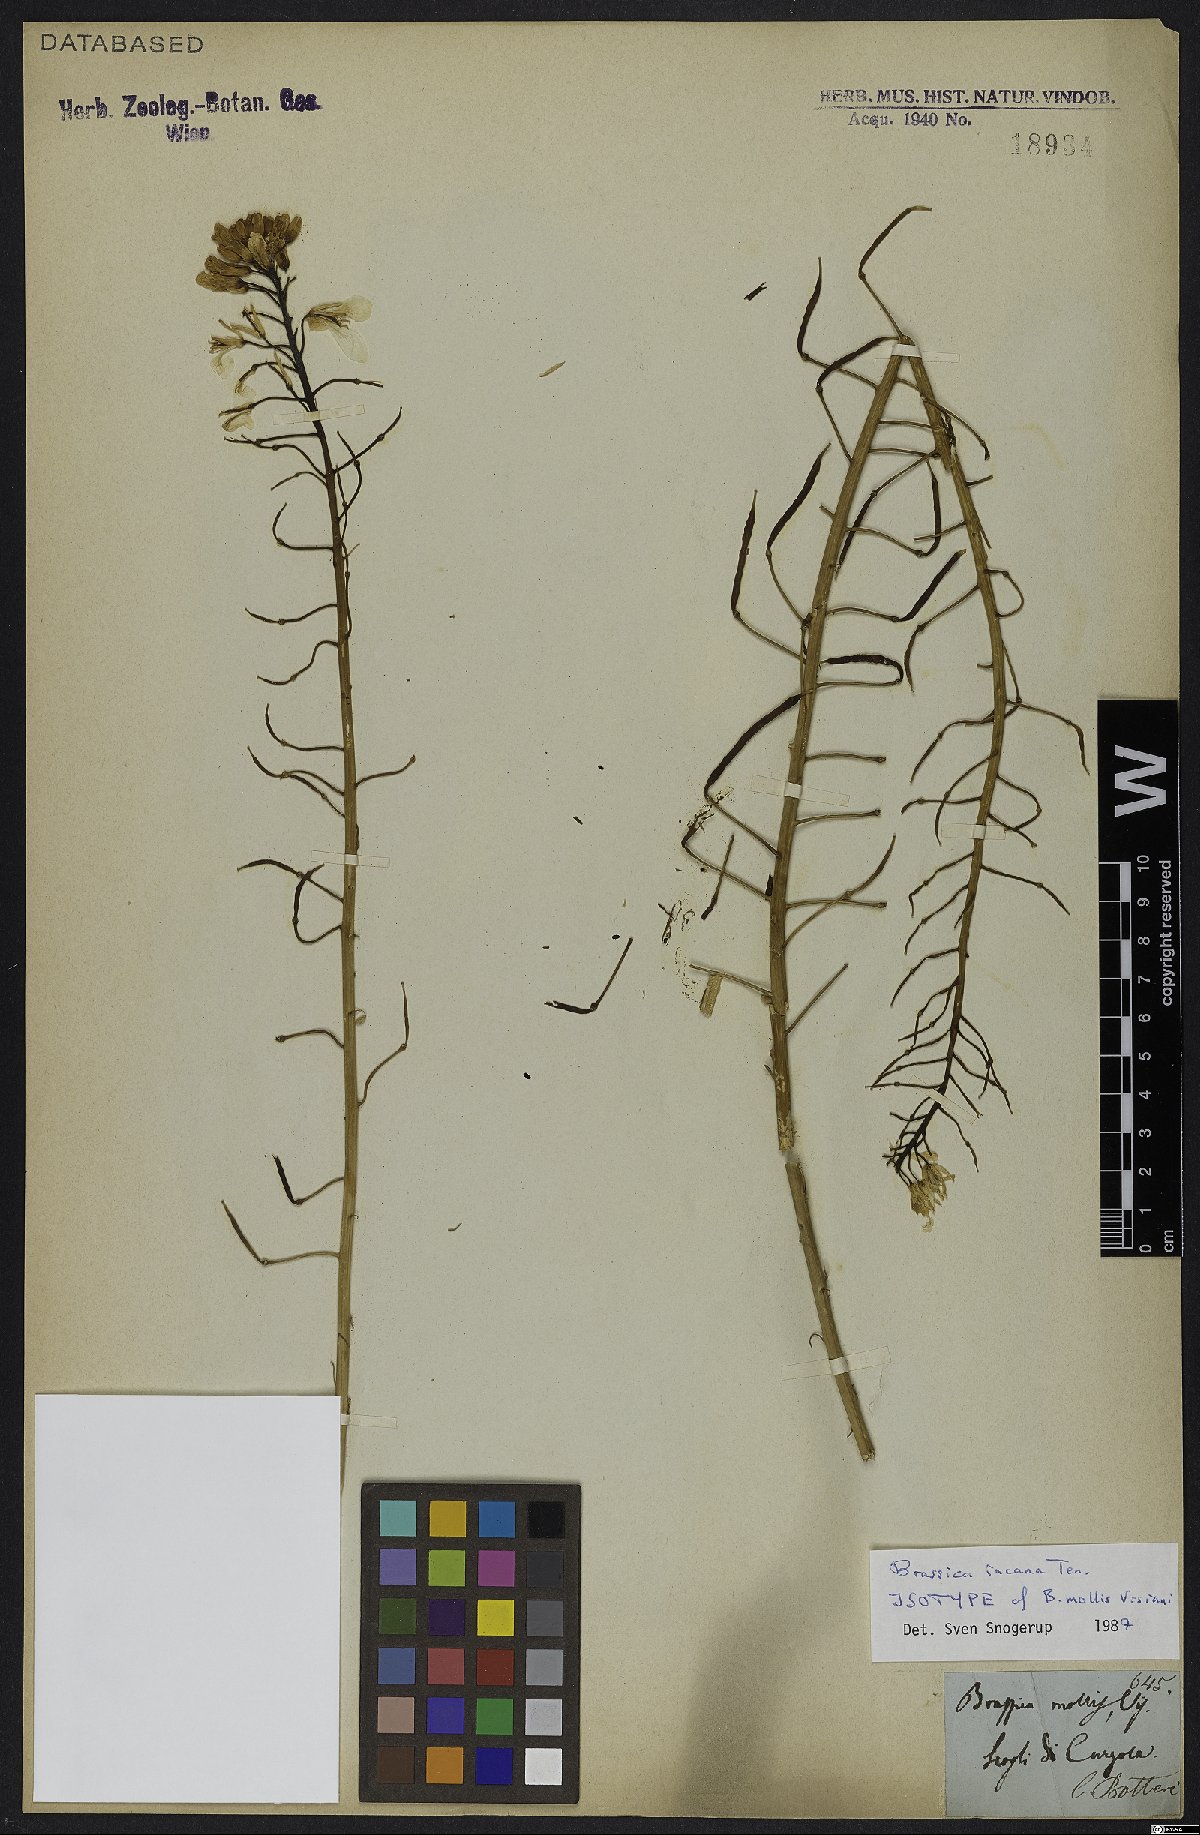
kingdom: Plantae
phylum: Tracheophyta
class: Magnoliopsida
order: Brassicales
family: Brassicaceae
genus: Brassica
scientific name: Brassica incana
